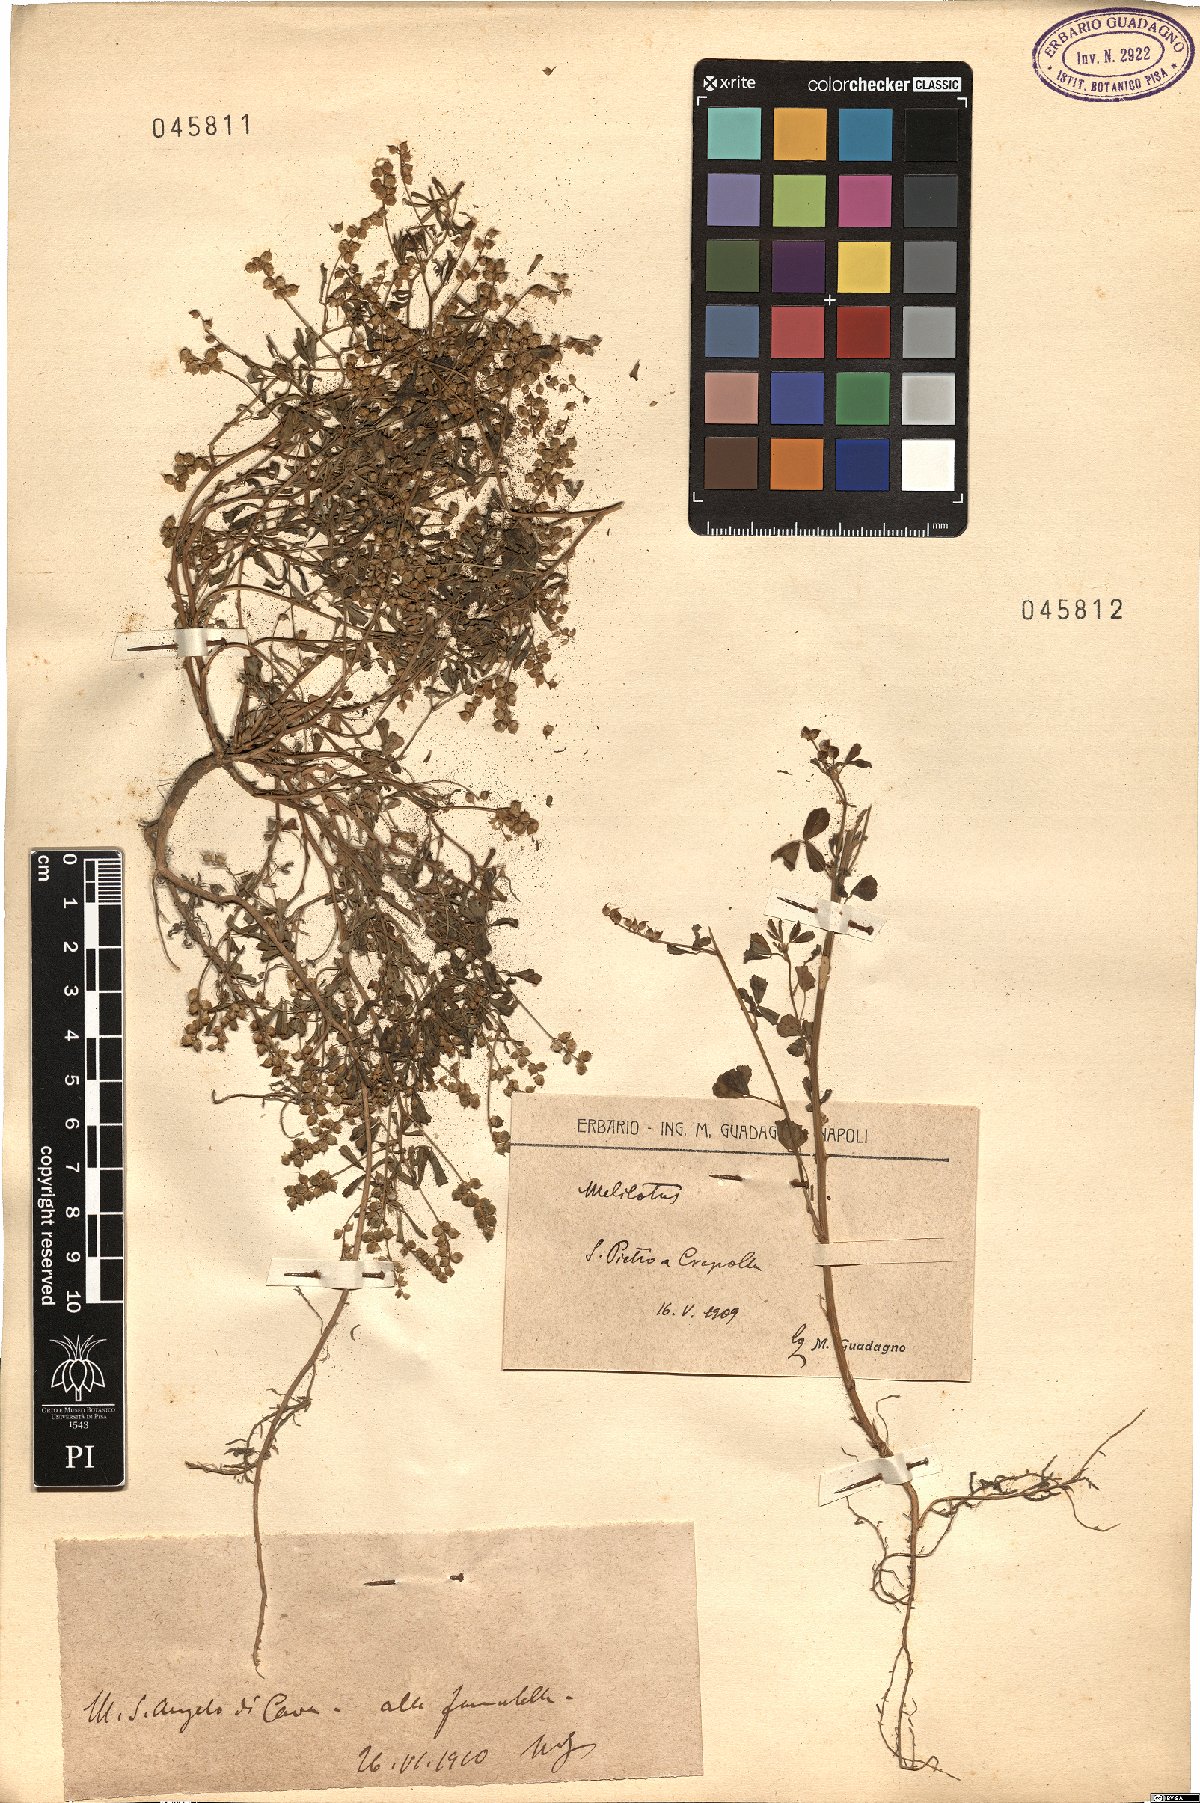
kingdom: Plantae
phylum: Tracheophyta
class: Magnoliopsida
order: Fabales
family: Fabaceae
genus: Melilotus
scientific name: Melilotus
